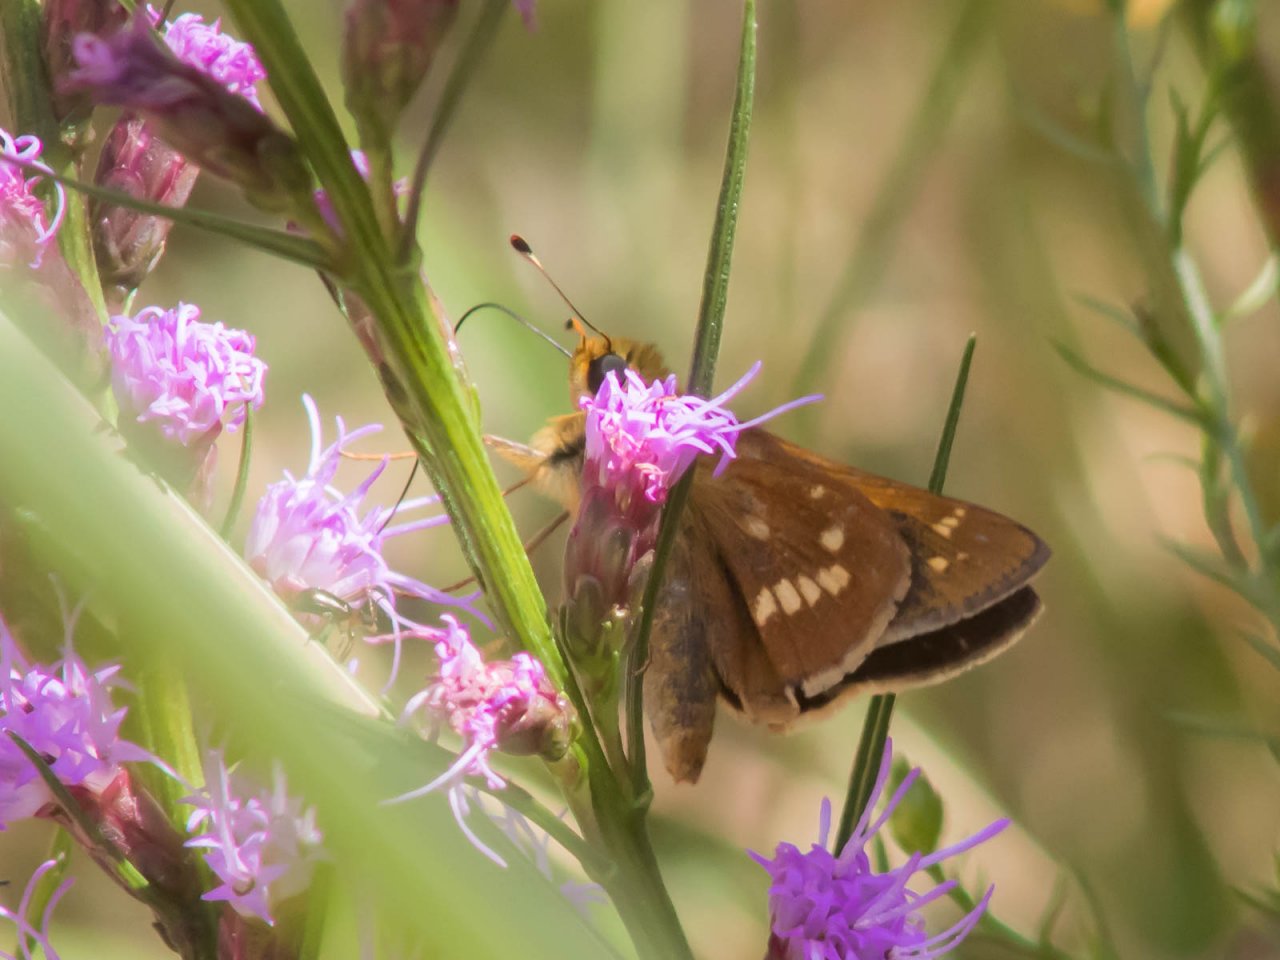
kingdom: Animalia
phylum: Arthropoda
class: Insecta
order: Lepidoptera
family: Hesperiidae
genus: Hesperia
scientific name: Hesperia leonardus
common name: Leonard's Skipper
